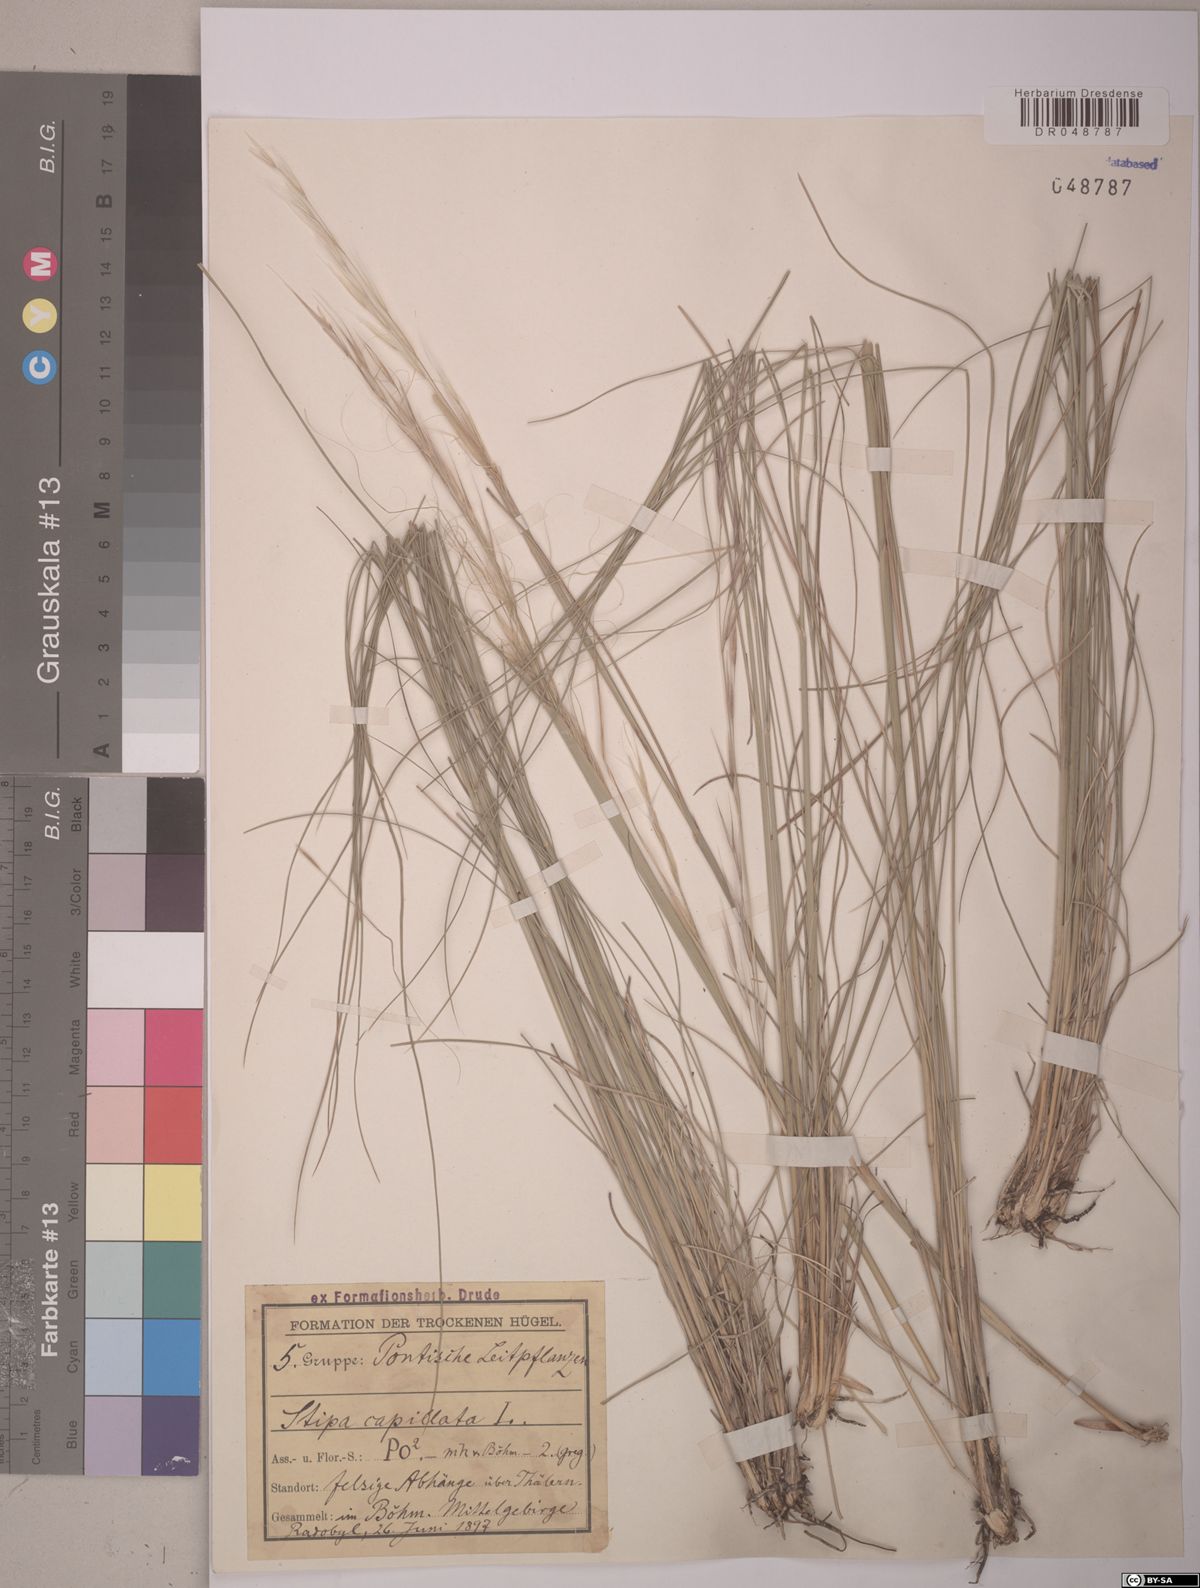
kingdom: Plantae
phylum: Tracheophyta
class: Liliopsida
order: Poales
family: Poaceae
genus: Stipa
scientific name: Stipa capillata
